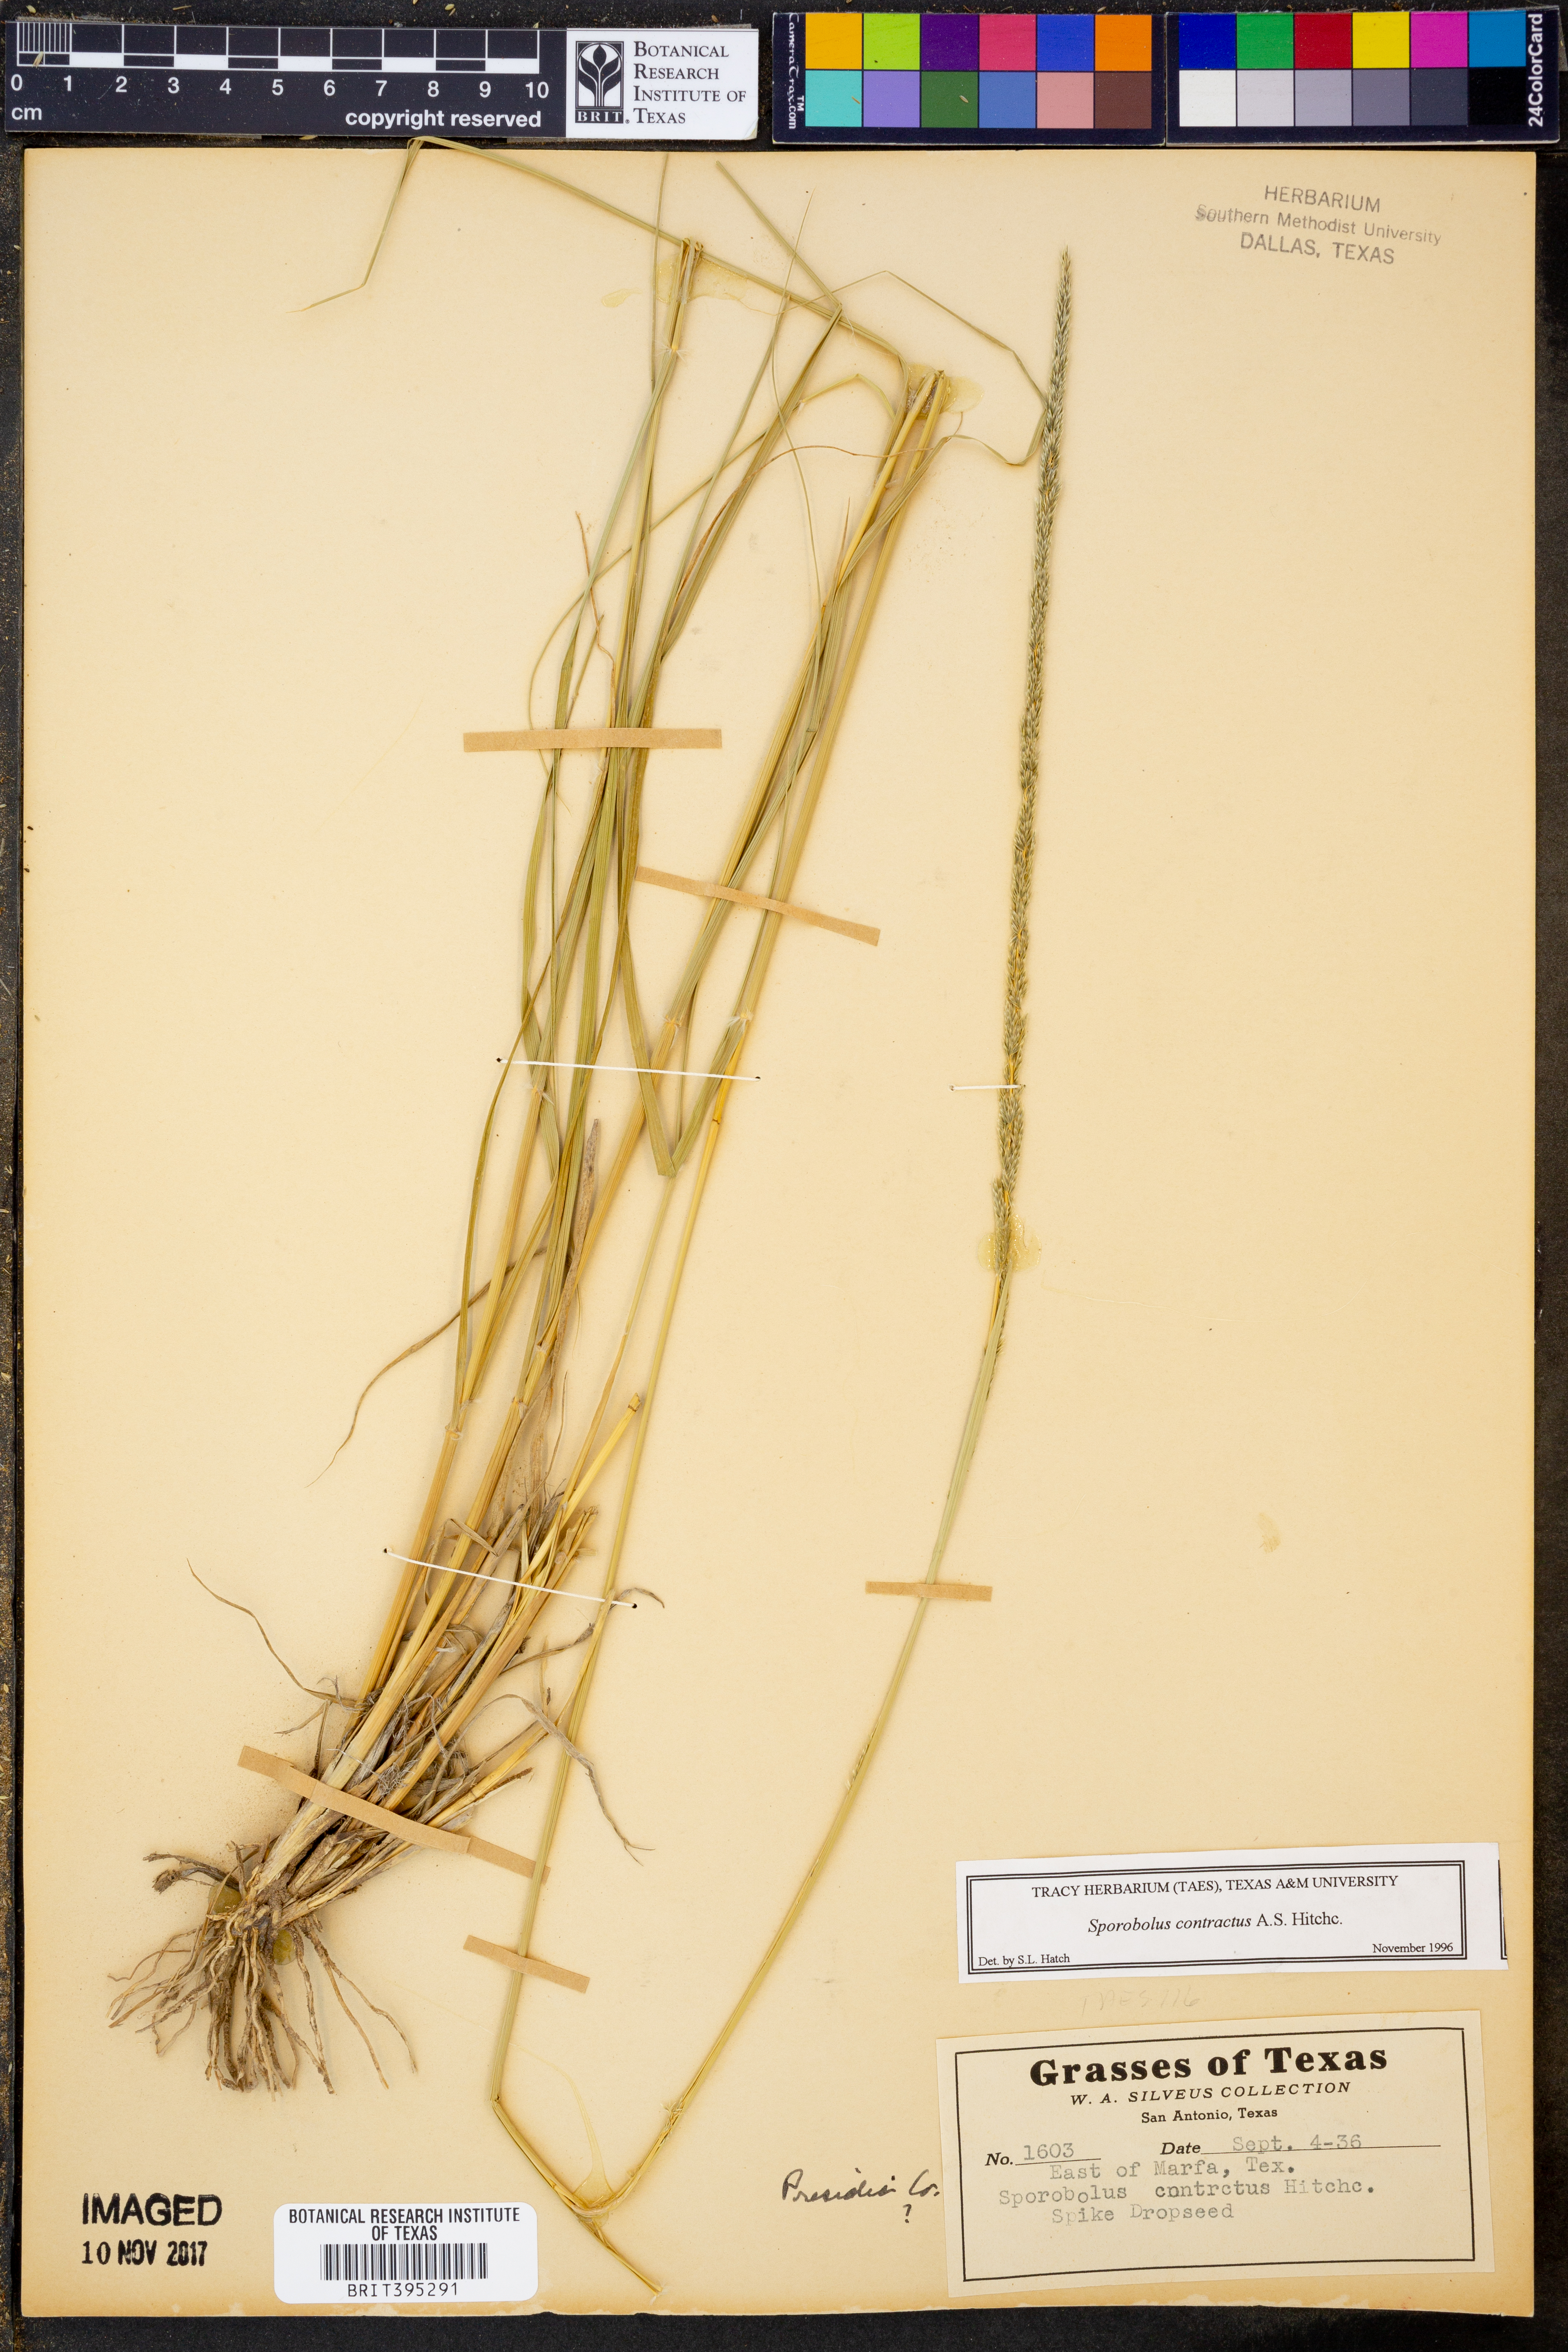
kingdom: Plantae
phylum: Tracheophyta
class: Liliopsida
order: Poales
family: Poaceae
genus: Sporobolus
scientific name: Sporobolus contractus
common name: Spike dropseed
